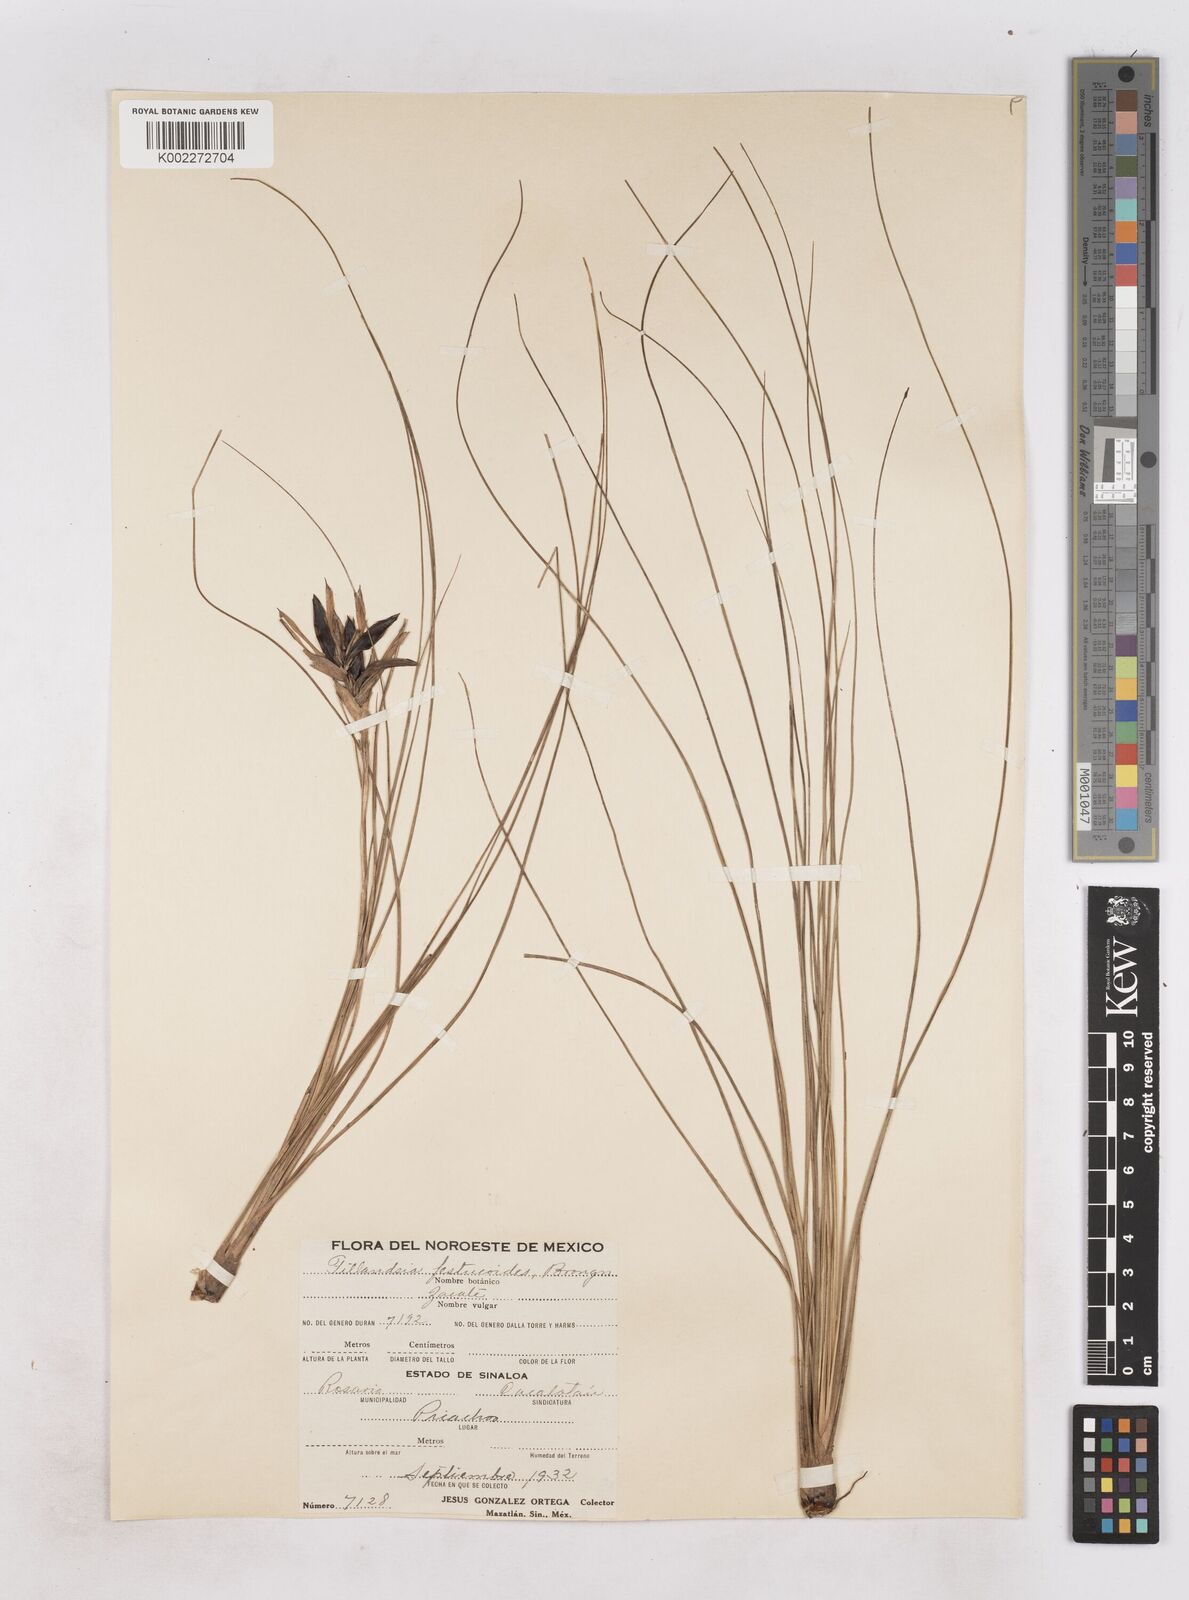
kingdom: Plantae
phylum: Tracheophyta
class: Liliopsida
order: Poales
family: Bromeliaceae
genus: Tillandsia
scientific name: Tillandsia festucoides
